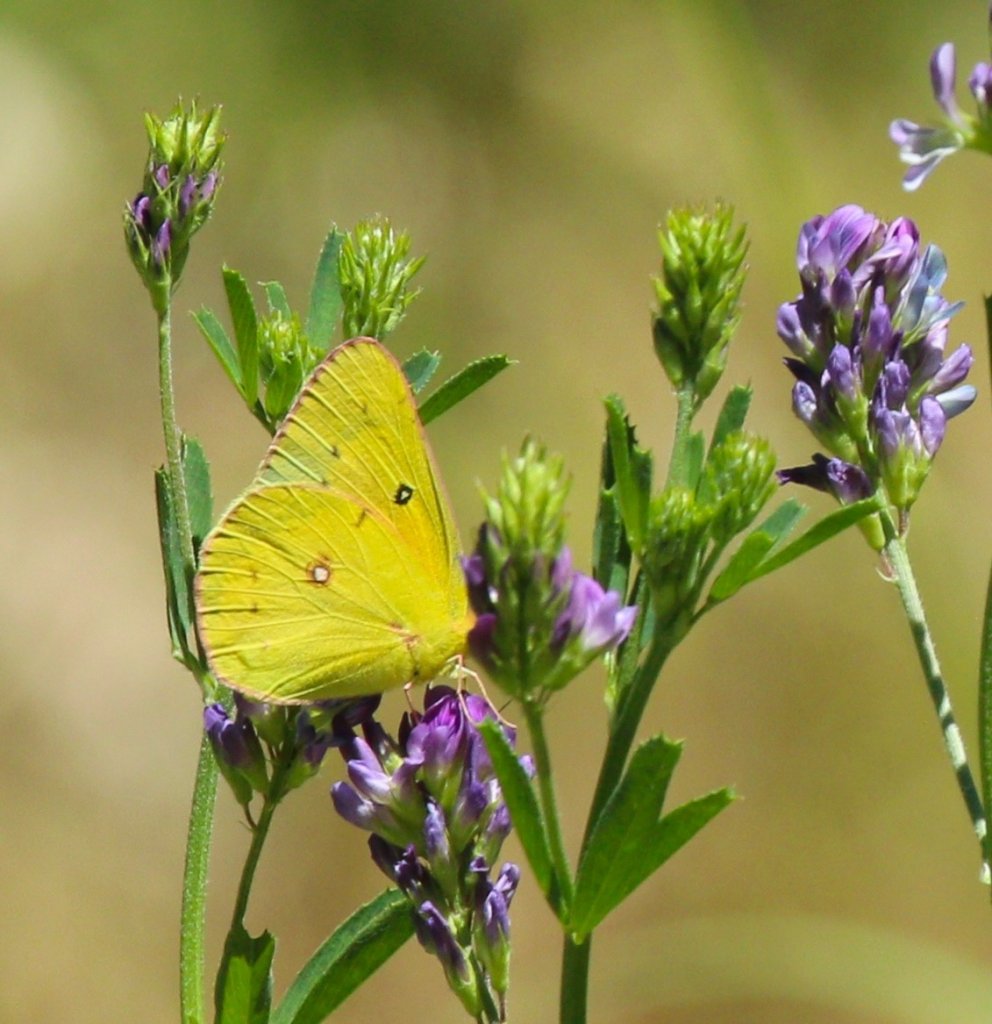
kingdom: Animalia
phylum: Arthropoda
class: Insecta
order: Lepidoptera
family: Pieridae
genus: Colias
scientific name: Colias eurytheme
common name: Orange Sulphur
